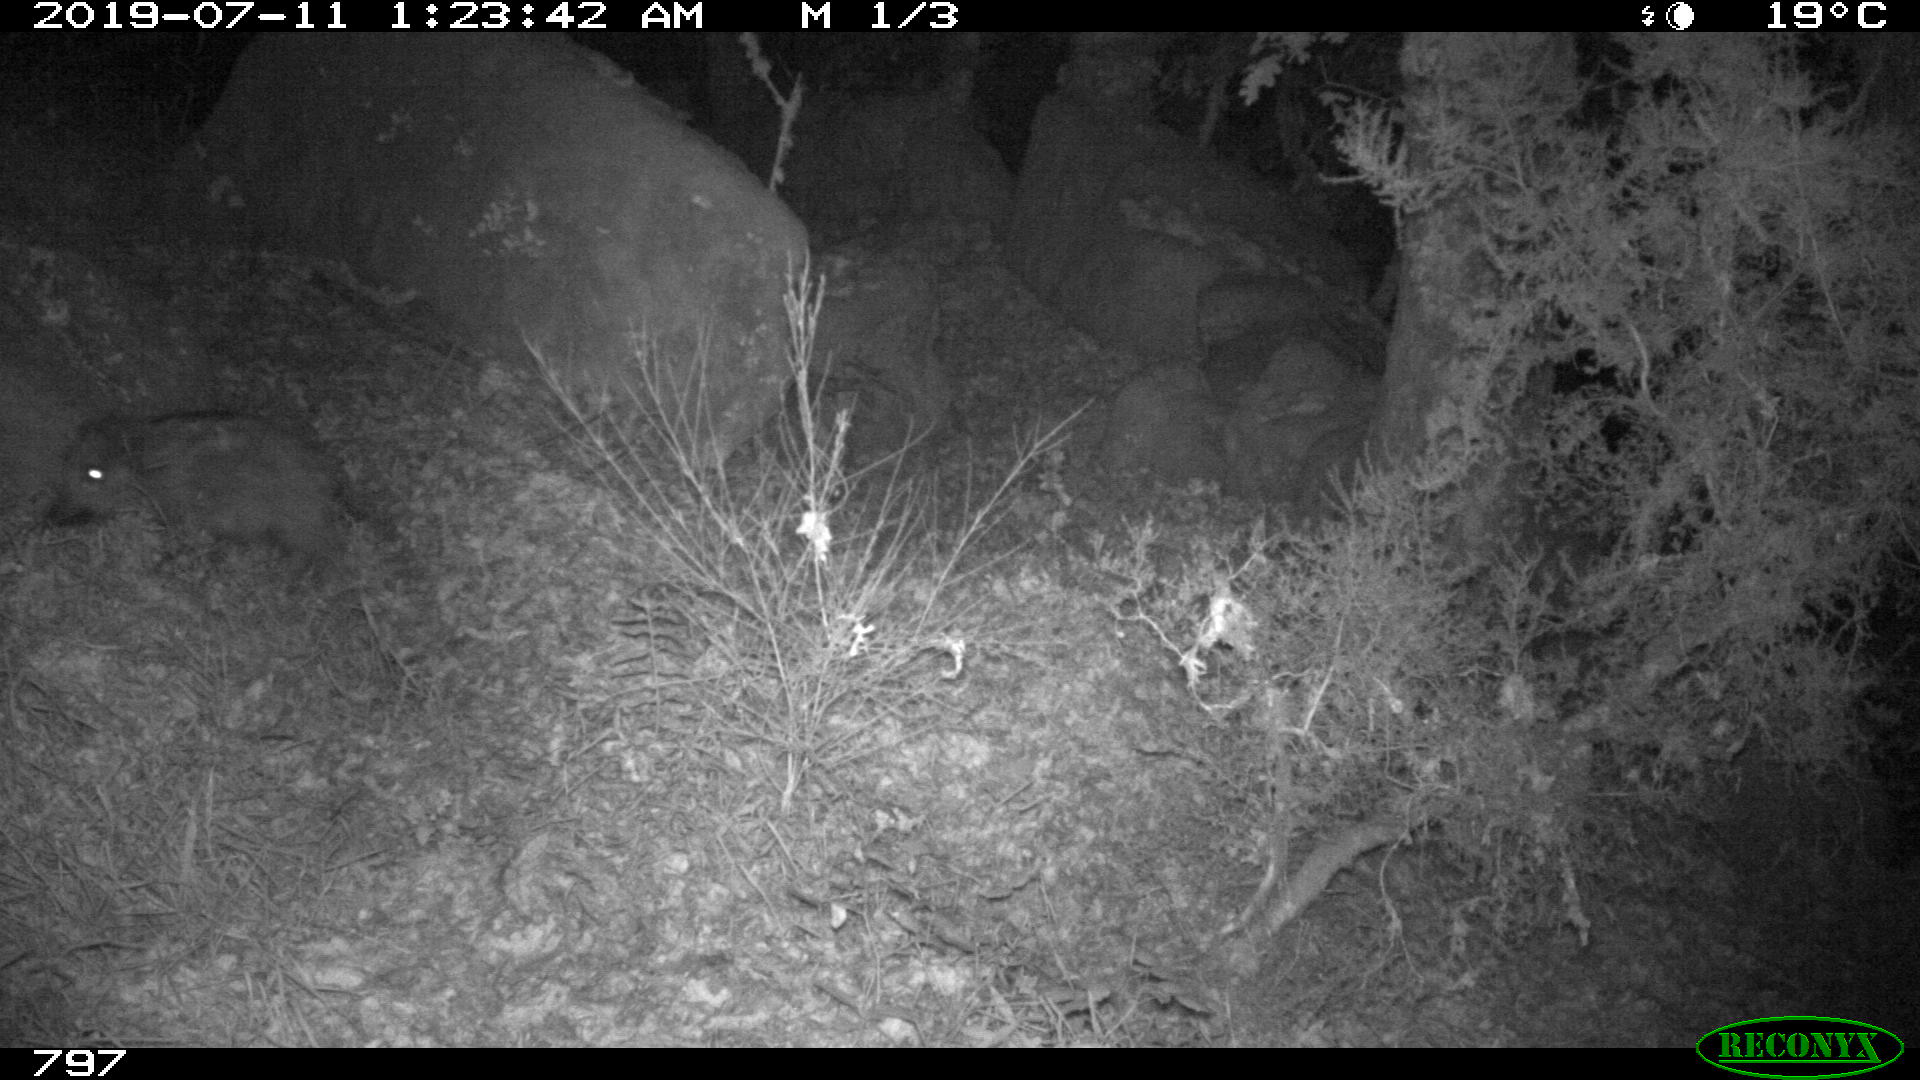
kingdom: Animalia
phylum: Chordata
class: Mammalia
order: Artiodactyla
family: Suidae
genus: Sus
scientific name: Sus scrofa
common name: Wild boar
